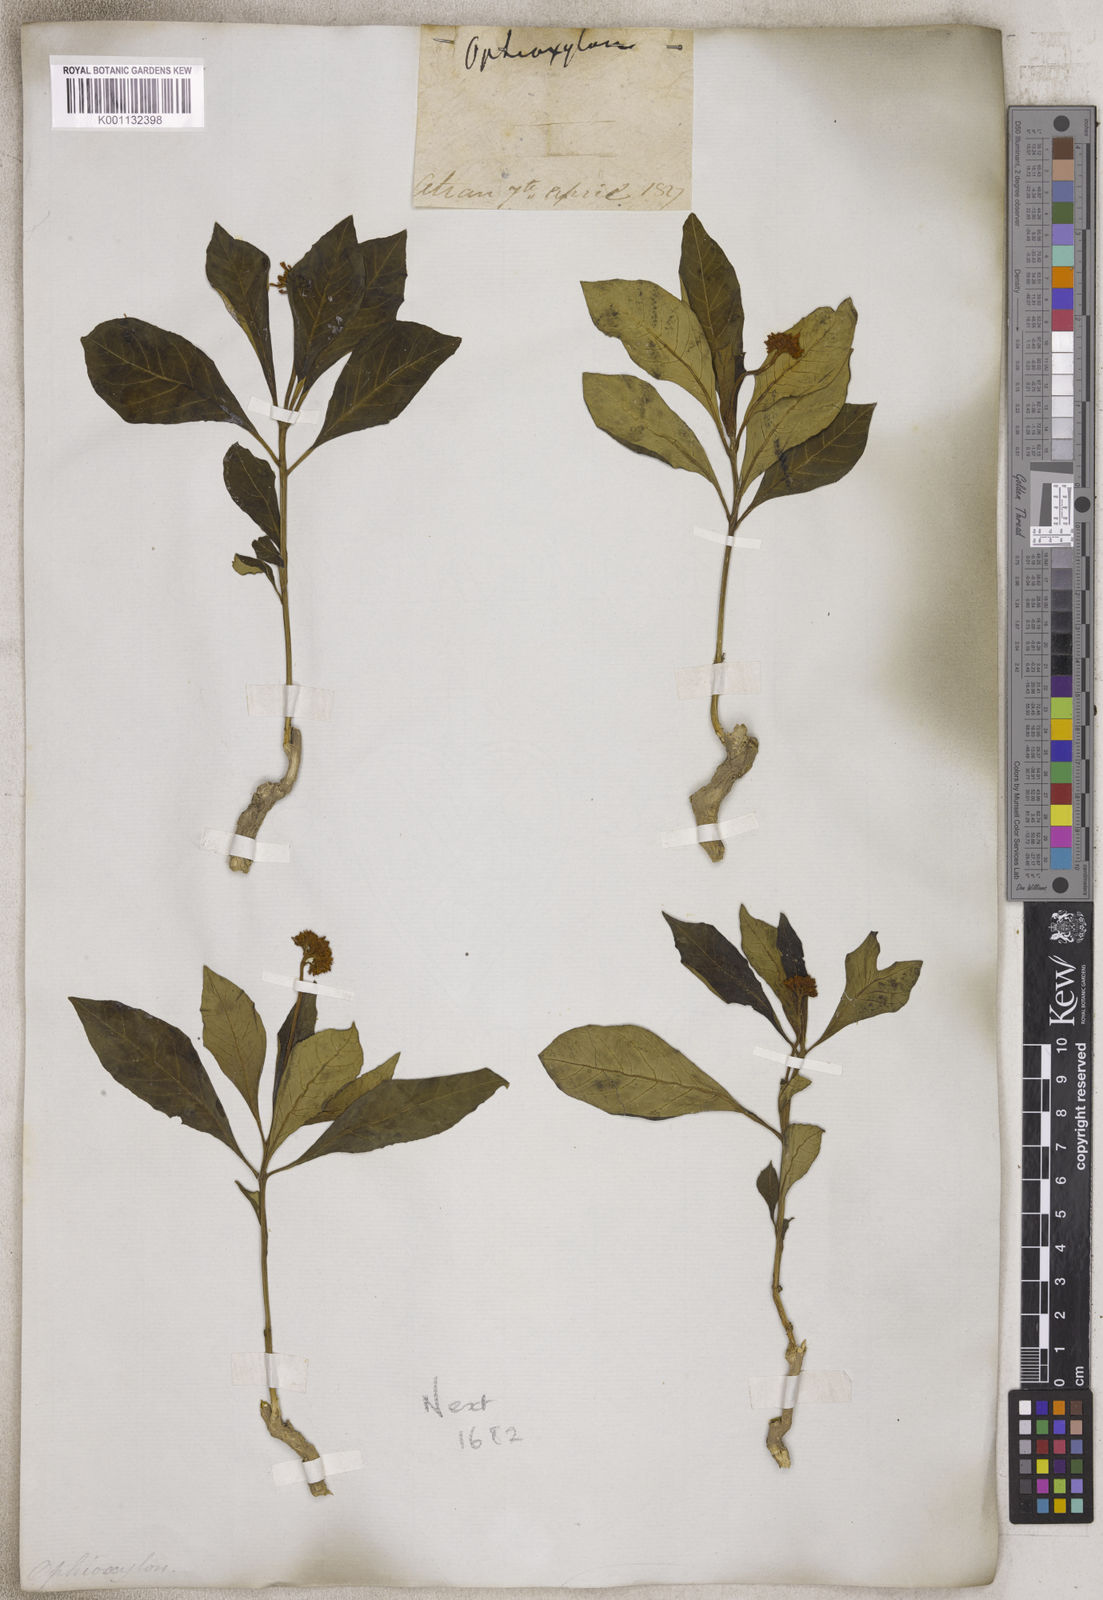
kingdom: Plantae
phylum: Tracheophyta
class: Magnoliopsida
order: Gentianales
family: Apocynaceae
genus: Rauvolfia
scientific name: Rauvolfia
